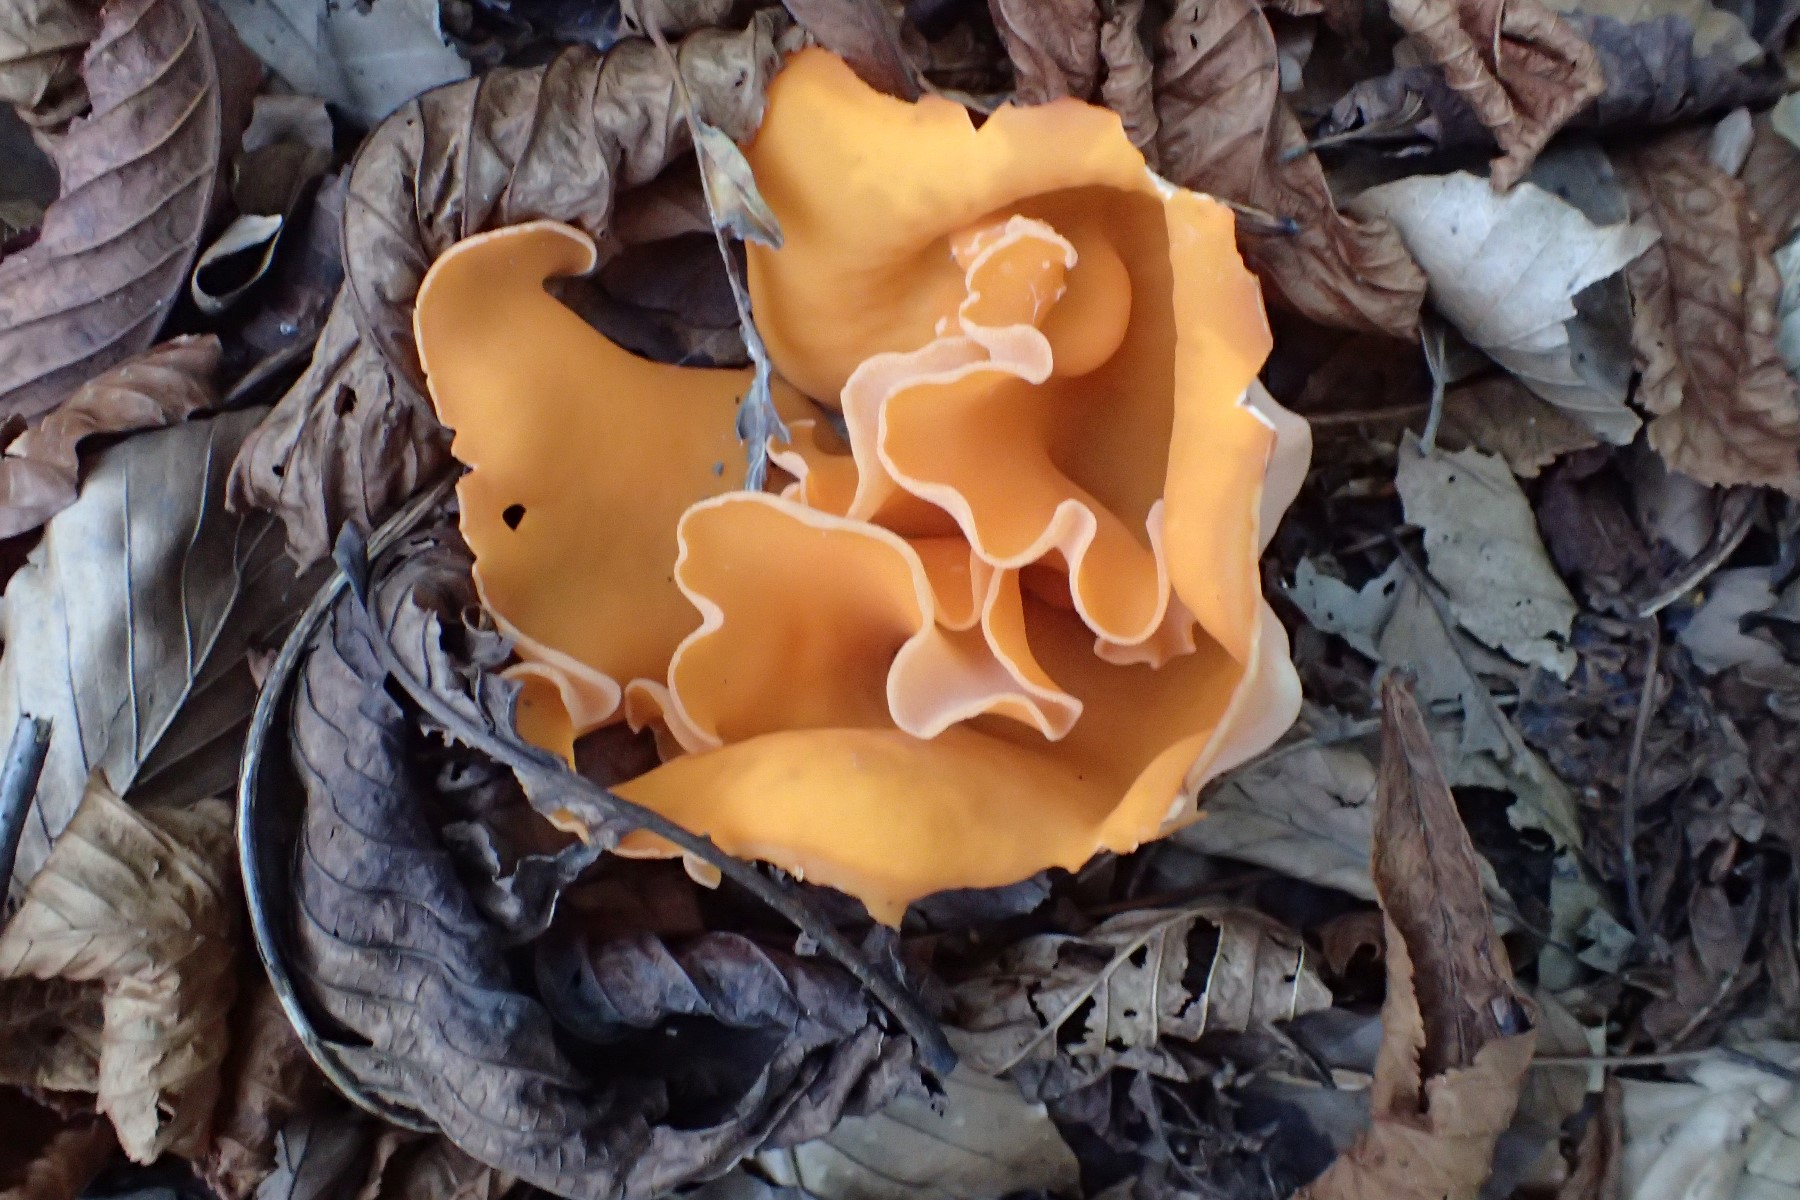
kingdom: Fungi
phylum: Ascomycota
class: Pezizomycetes
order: Pezizales
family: Pyronemataceae
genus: Aleuria
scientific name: Aleuria aurantia
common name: almindelig orangebæger
